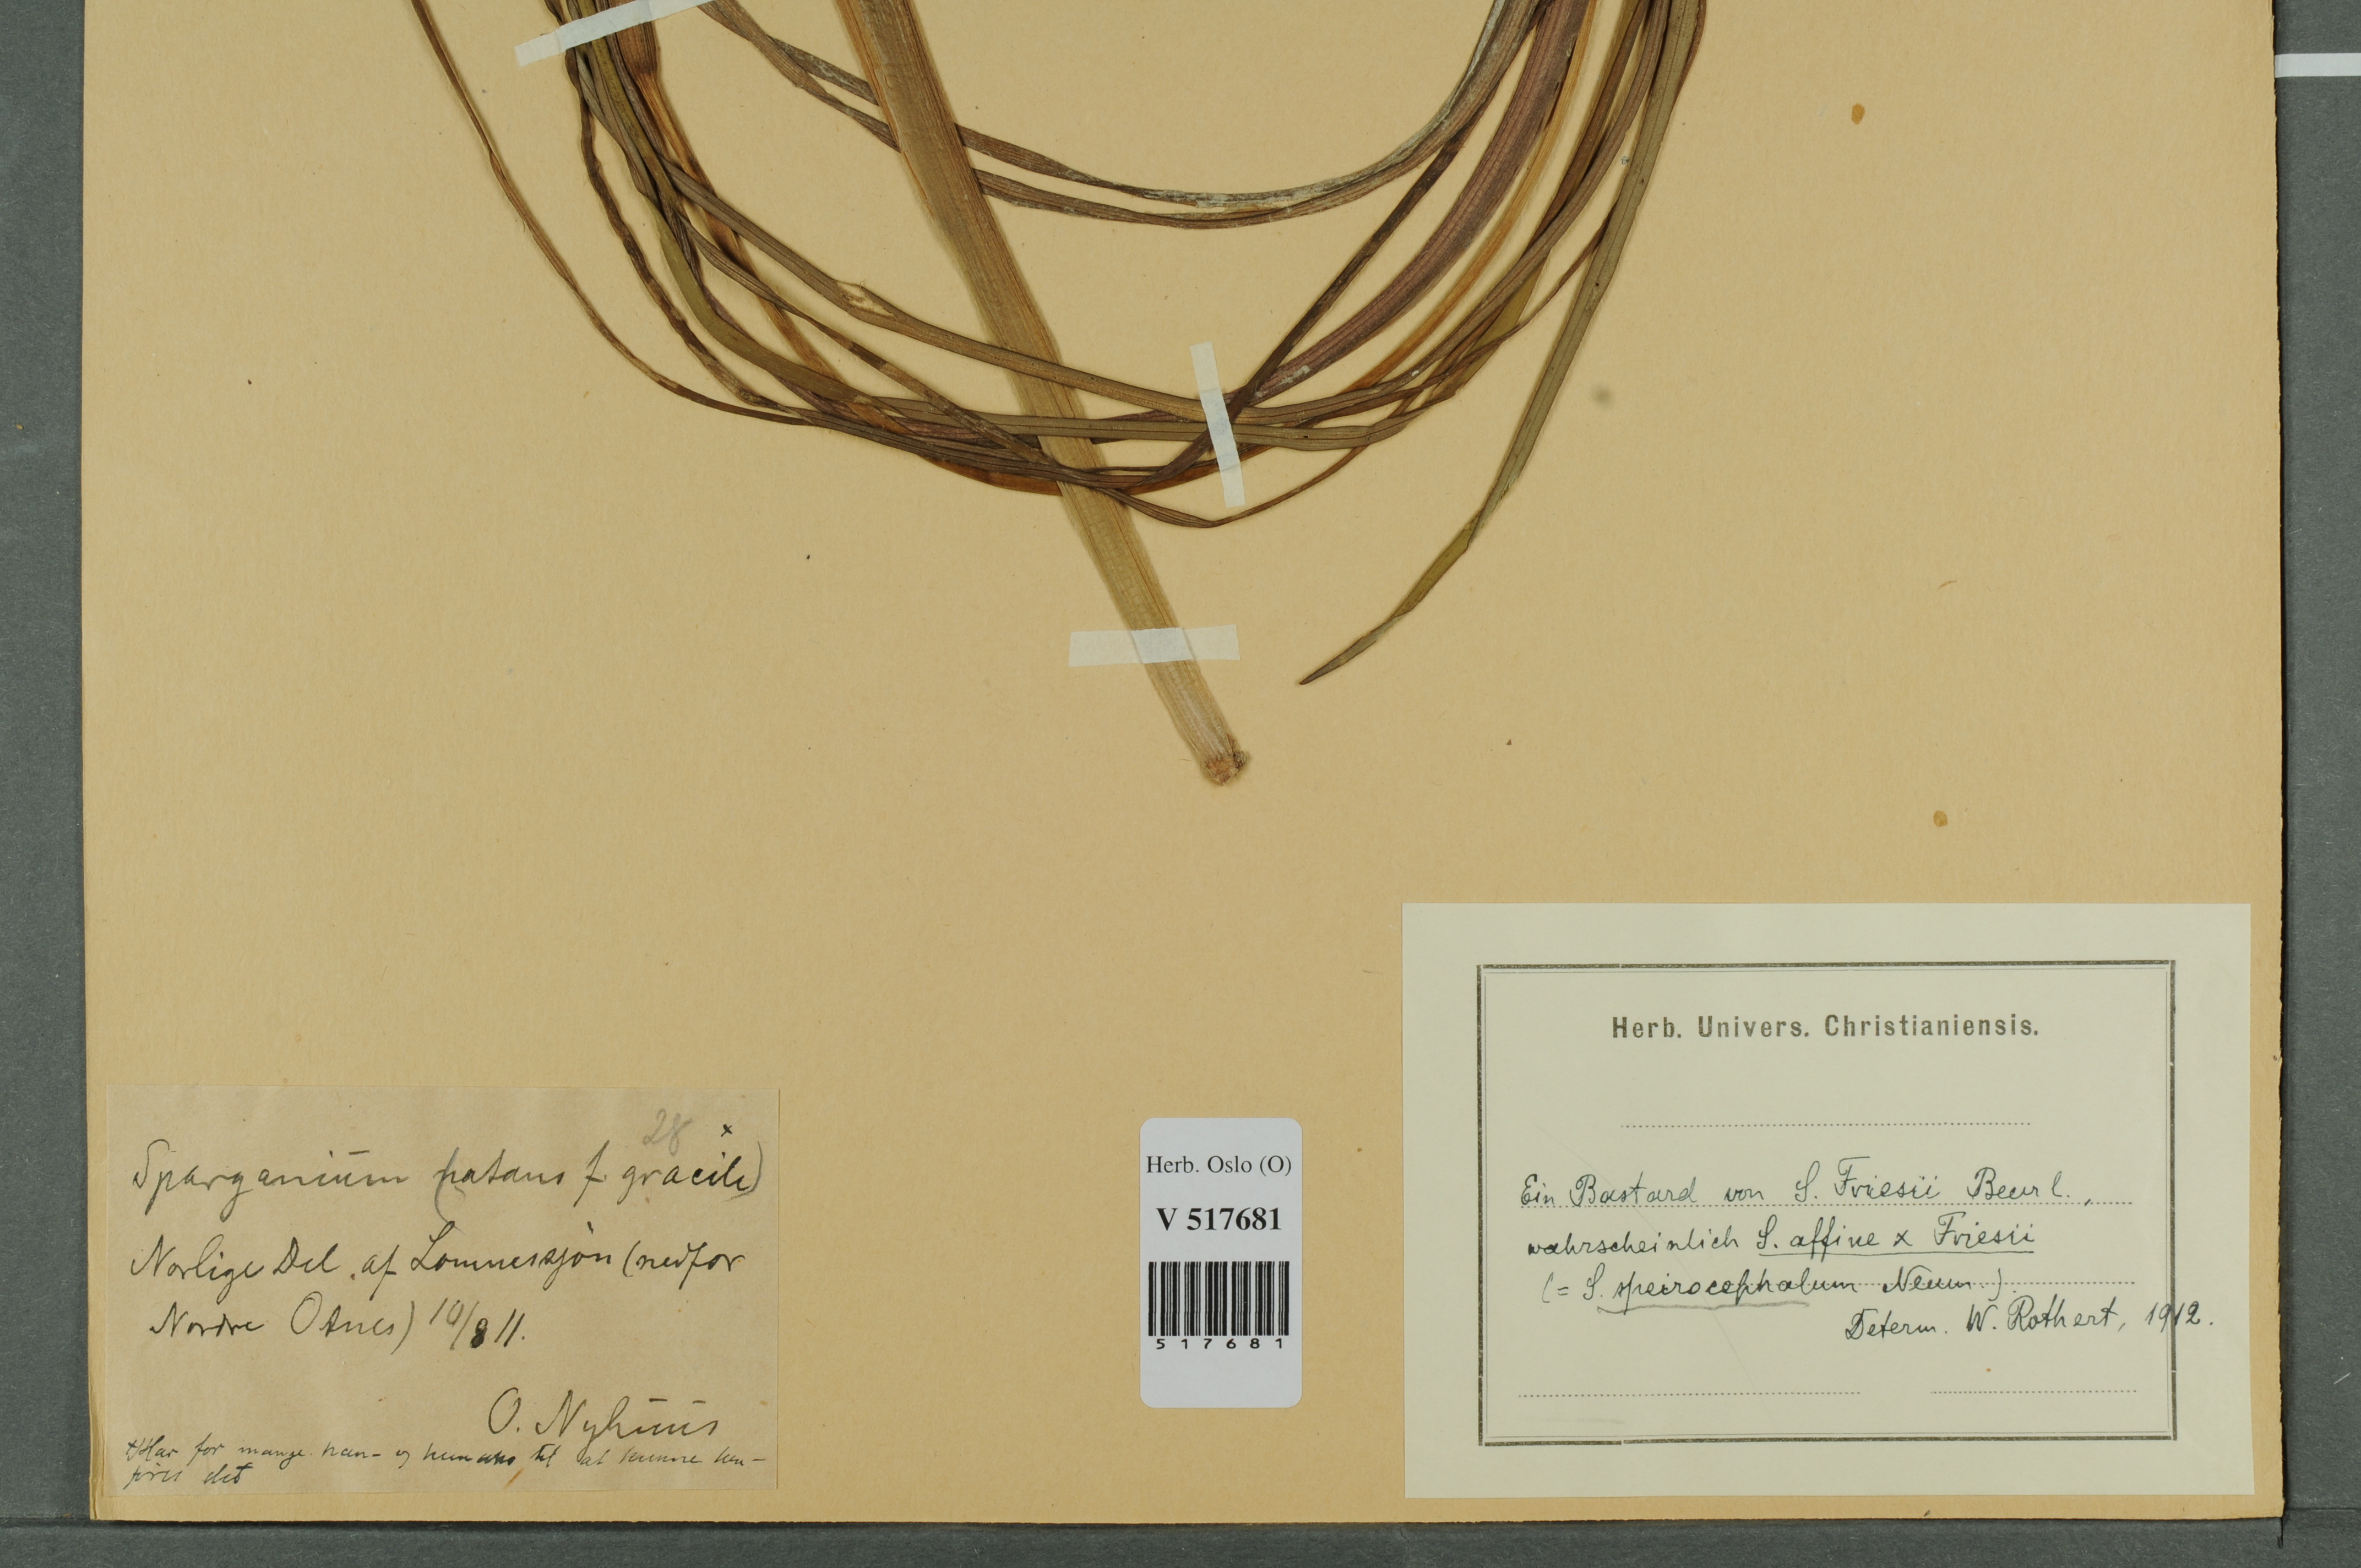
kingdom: Plantae
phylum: Tracheophyta
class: Liliopsida
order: Poales
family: Typhaceae
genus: Sparganium
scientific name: Sparganium
